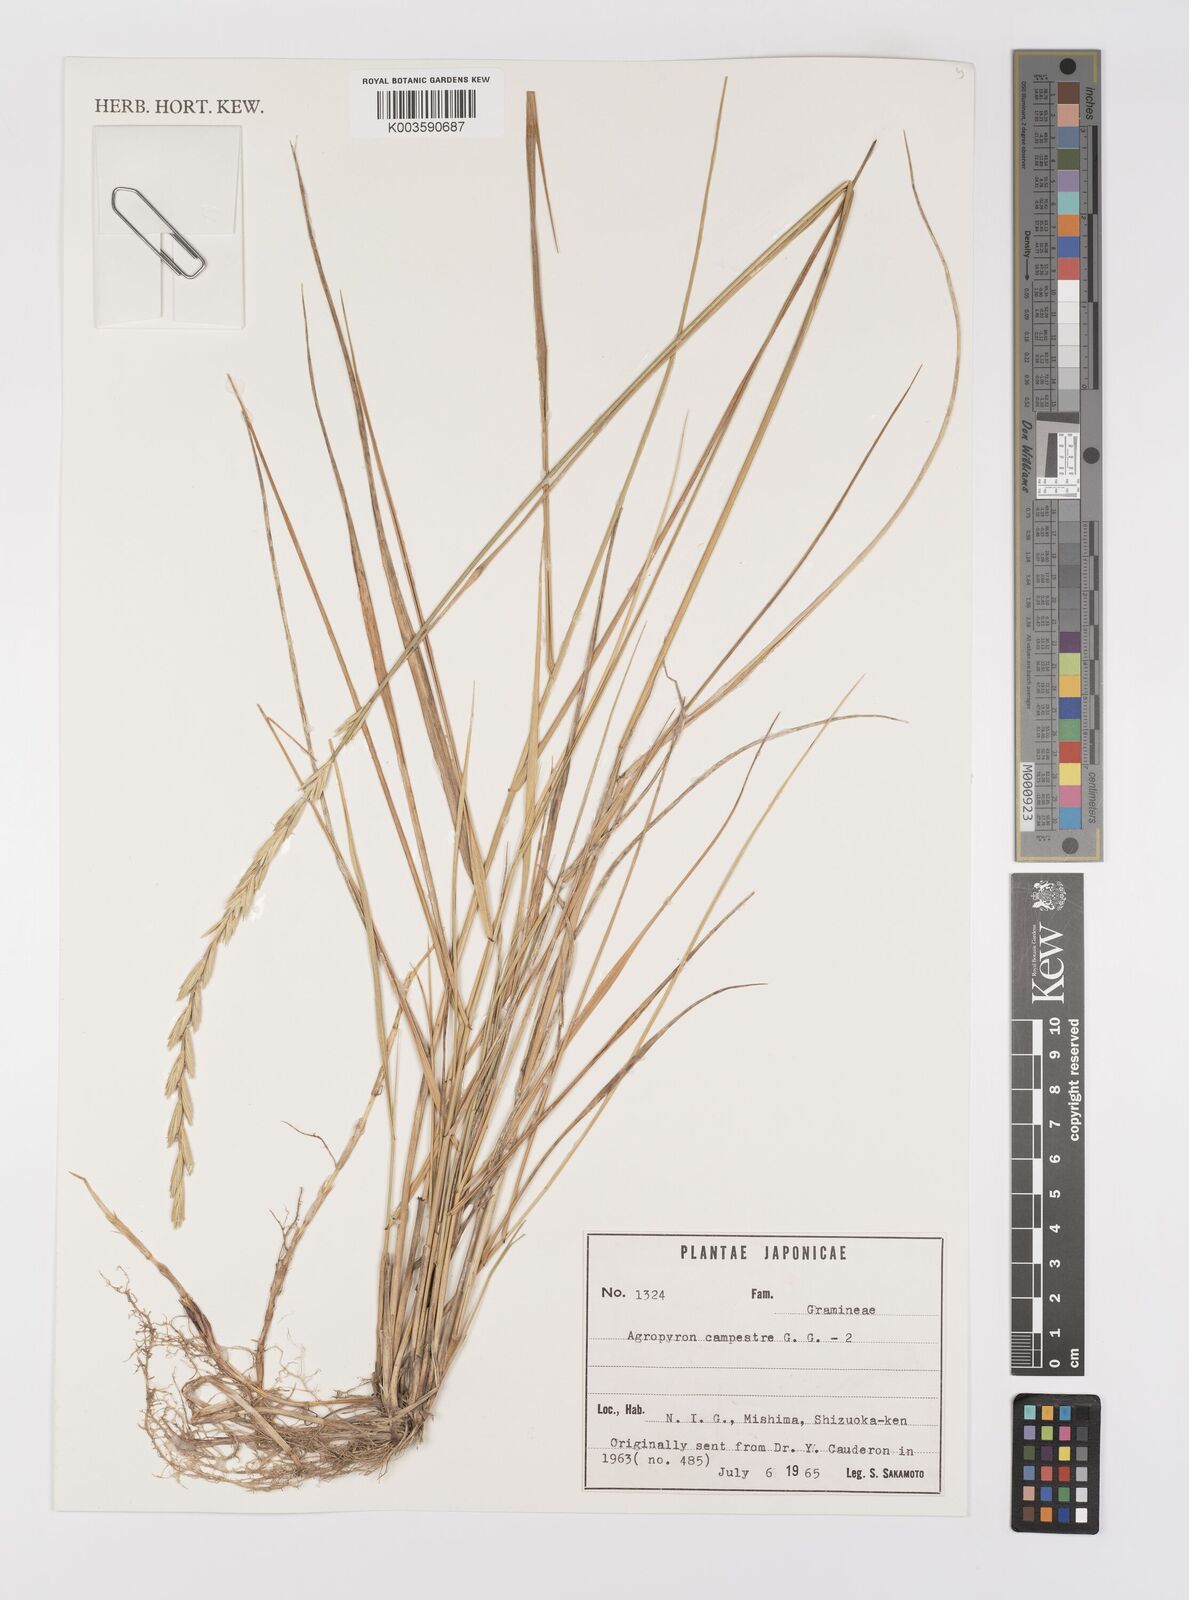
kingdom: Plantae
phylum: Tracheophyta
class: Liliopsida
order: Poales
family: Poaceae
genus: Elymus
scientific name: Elymus pungens
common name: Sea couch
